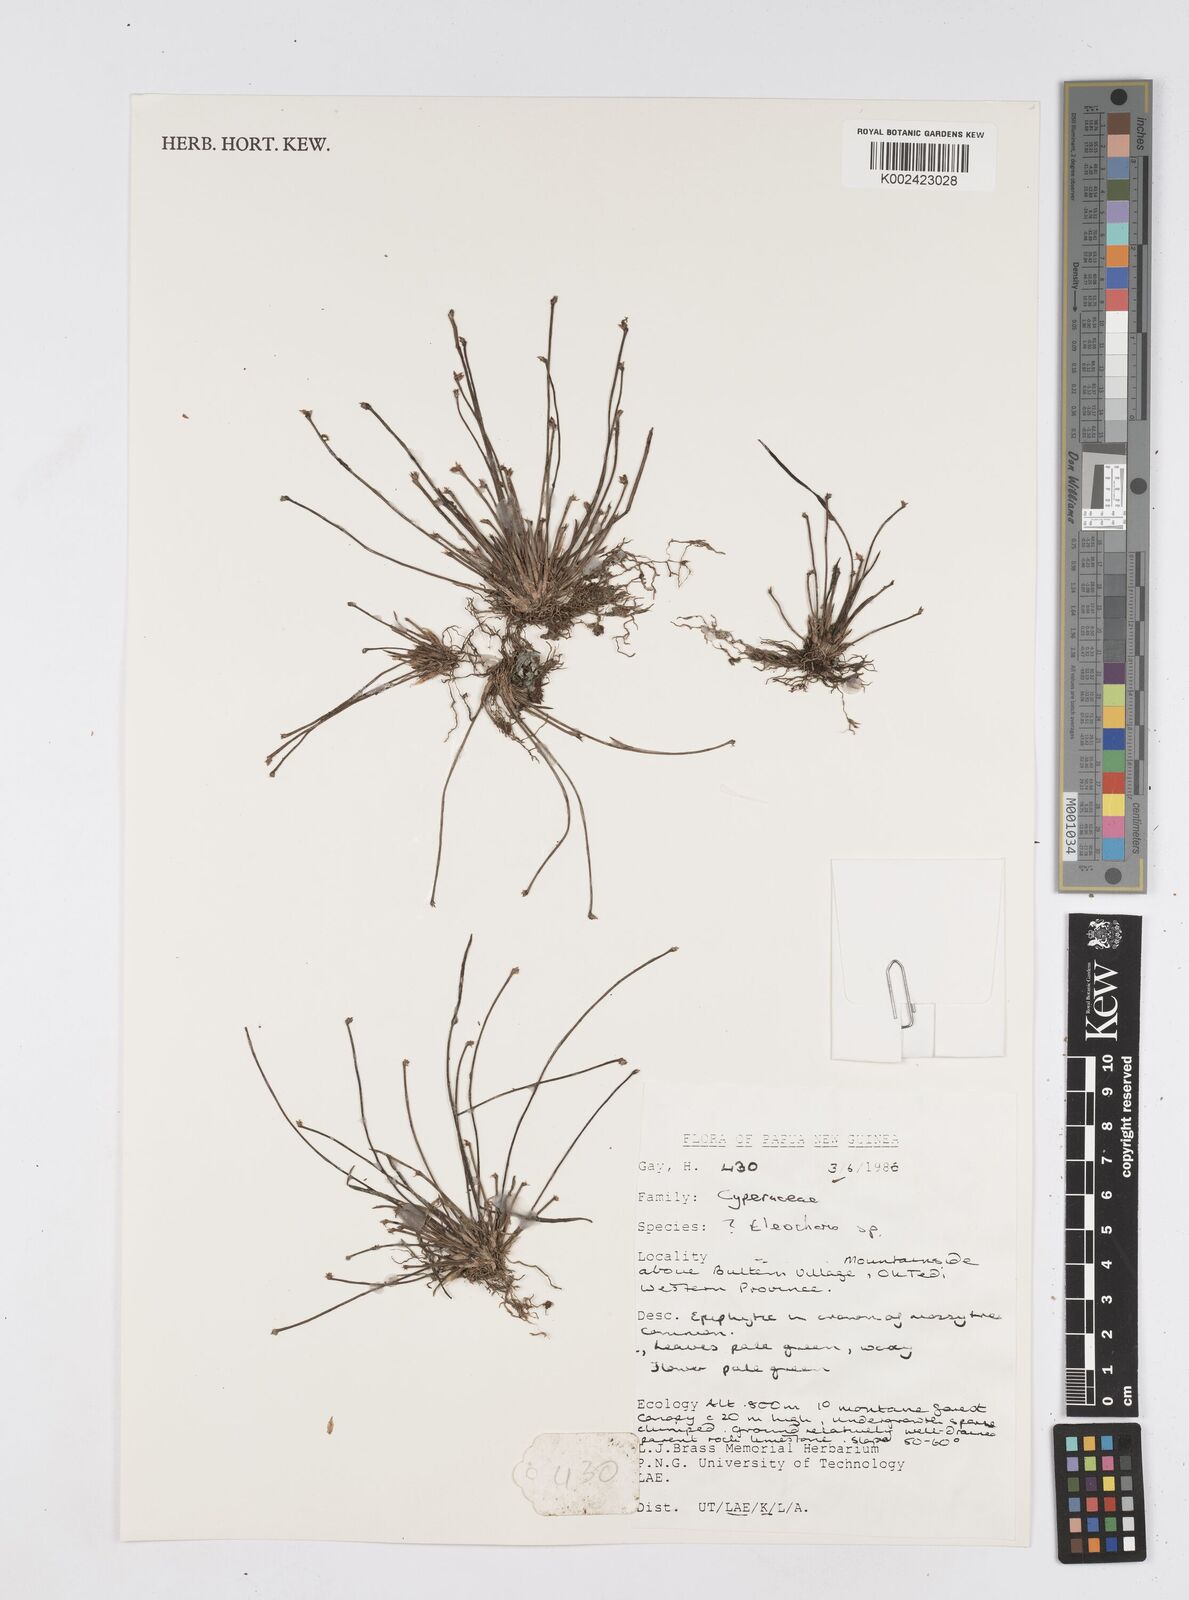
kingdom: Plantae
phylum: Tracheophyta
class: Liliopsida
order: Poales
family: Cyperaceae
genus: Eleocharis
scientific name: Eleocharis
